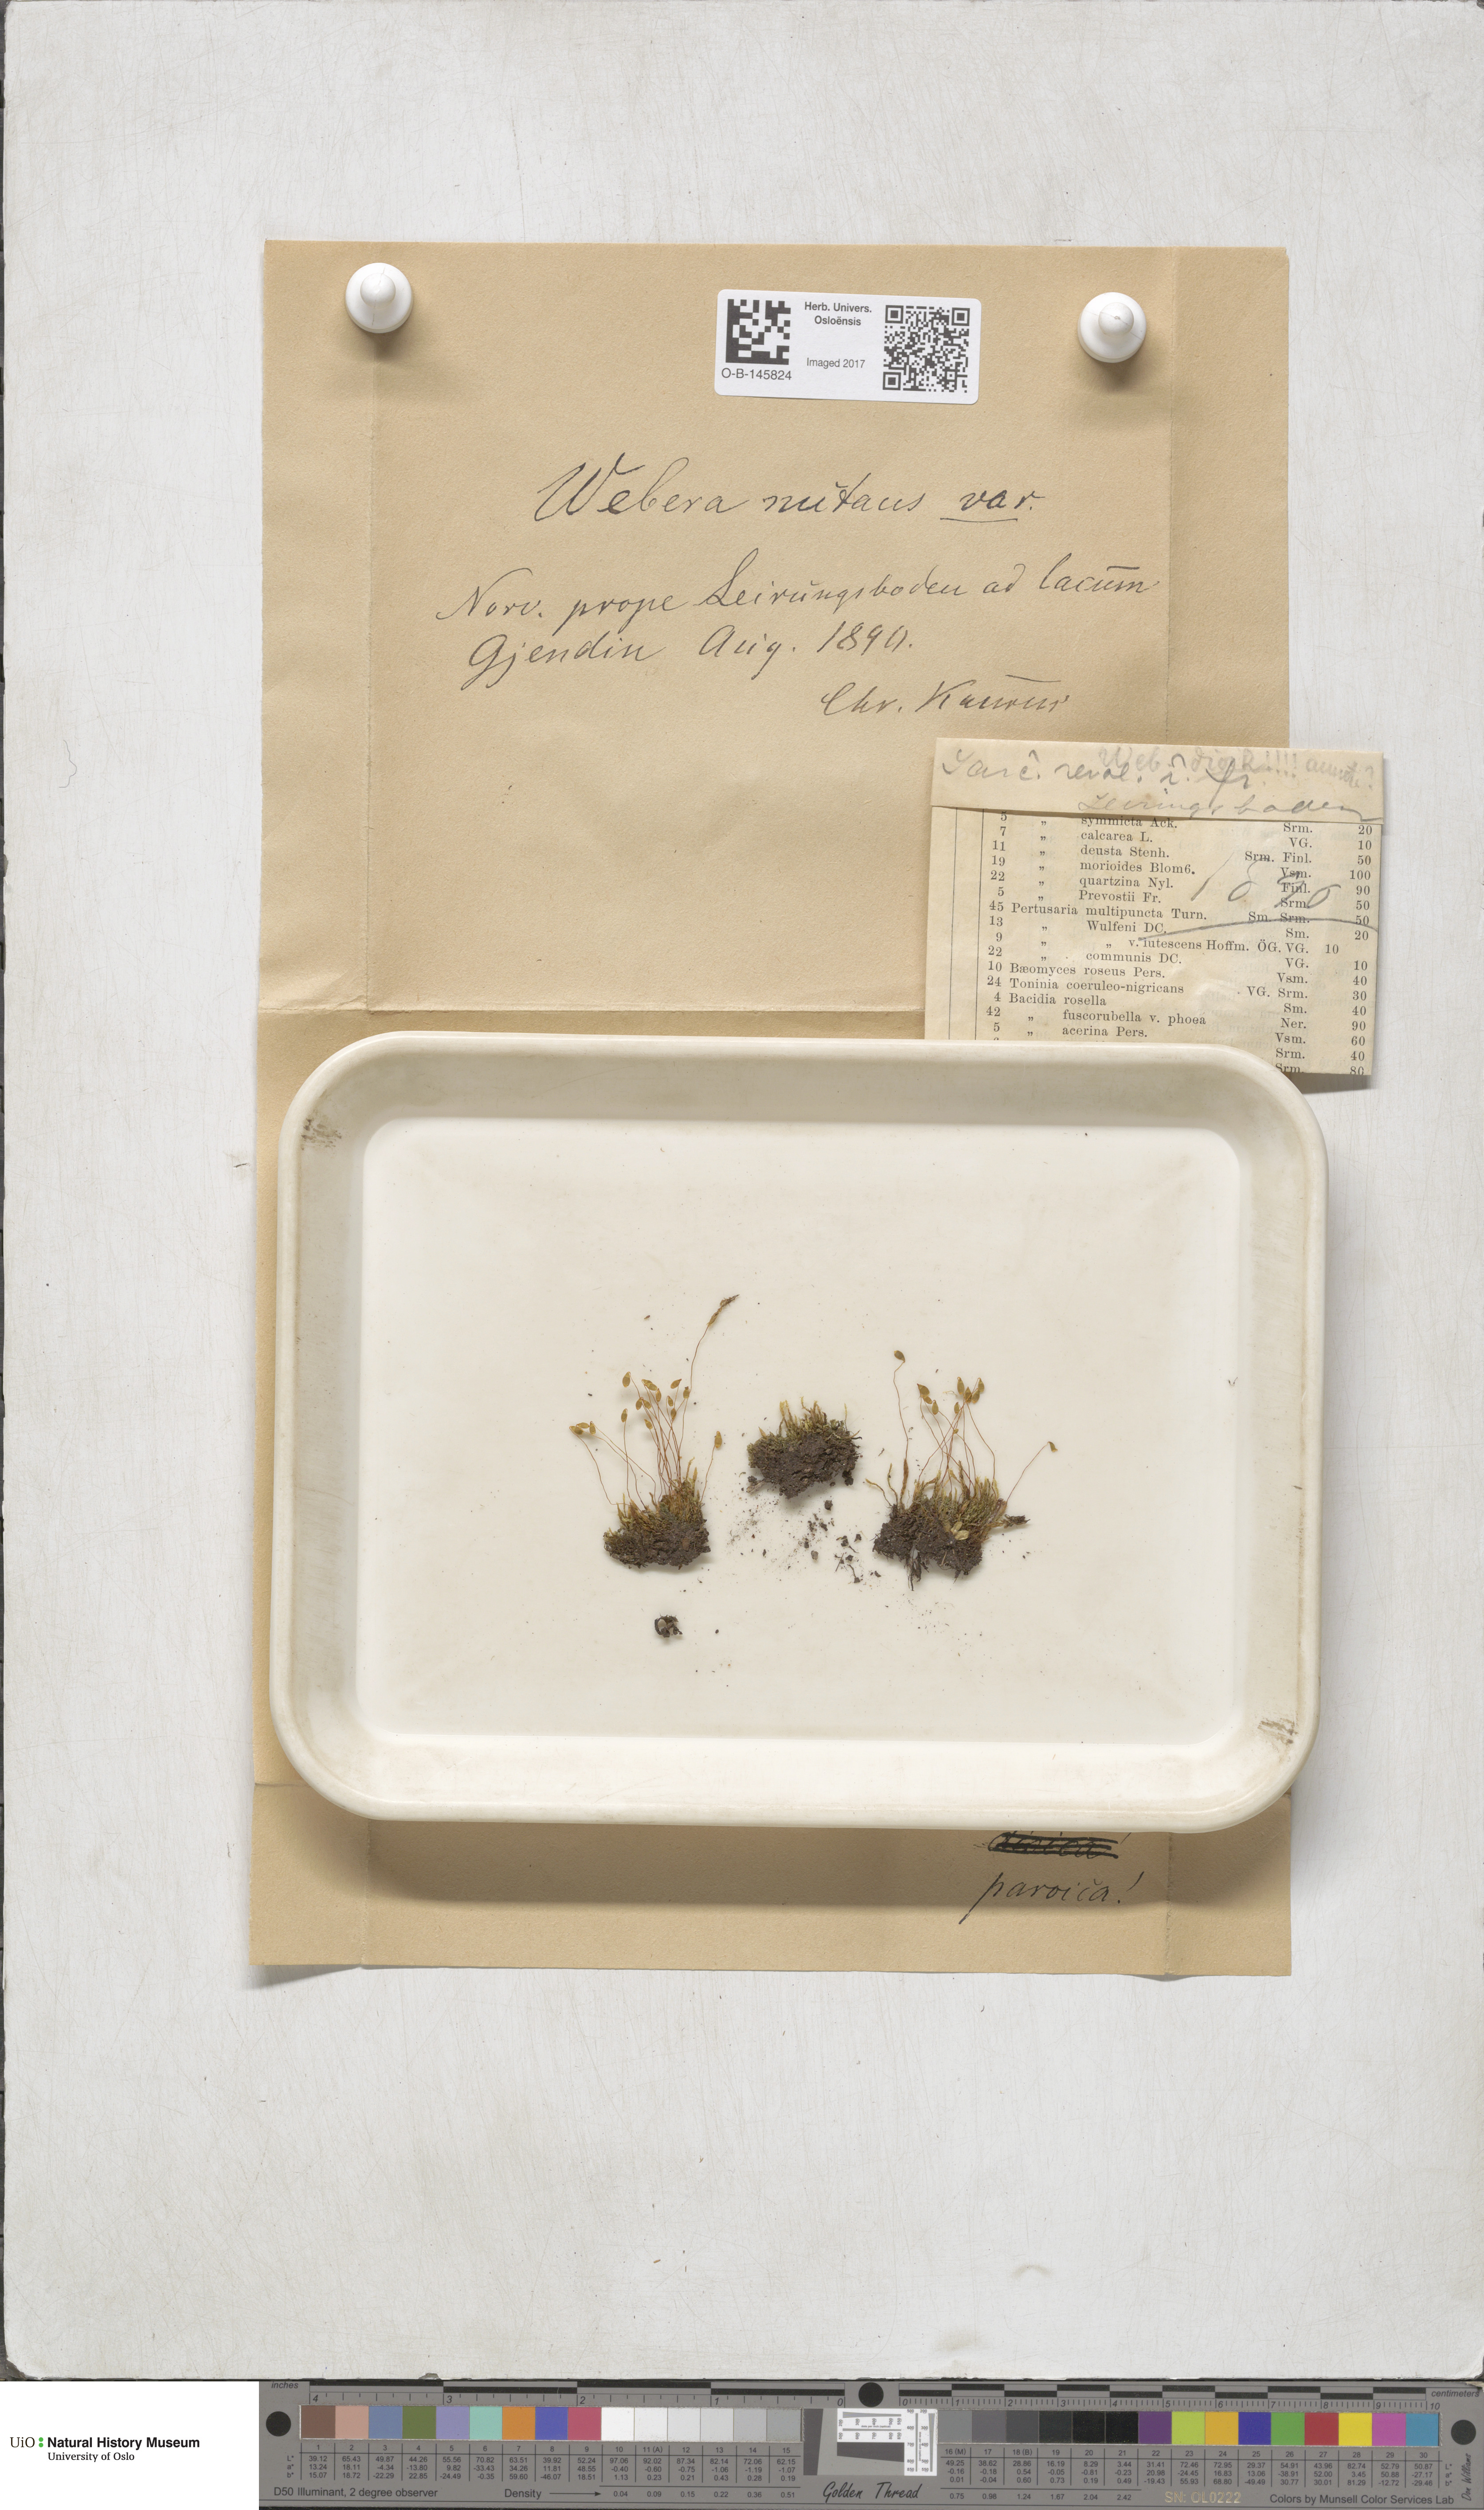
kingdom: Plantae
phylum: Bryophyta
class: Bryopsida
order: Bryales
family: Mniaceae
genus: Pohlia
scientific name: Pohlia nutans
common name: Nodding thread-moss
